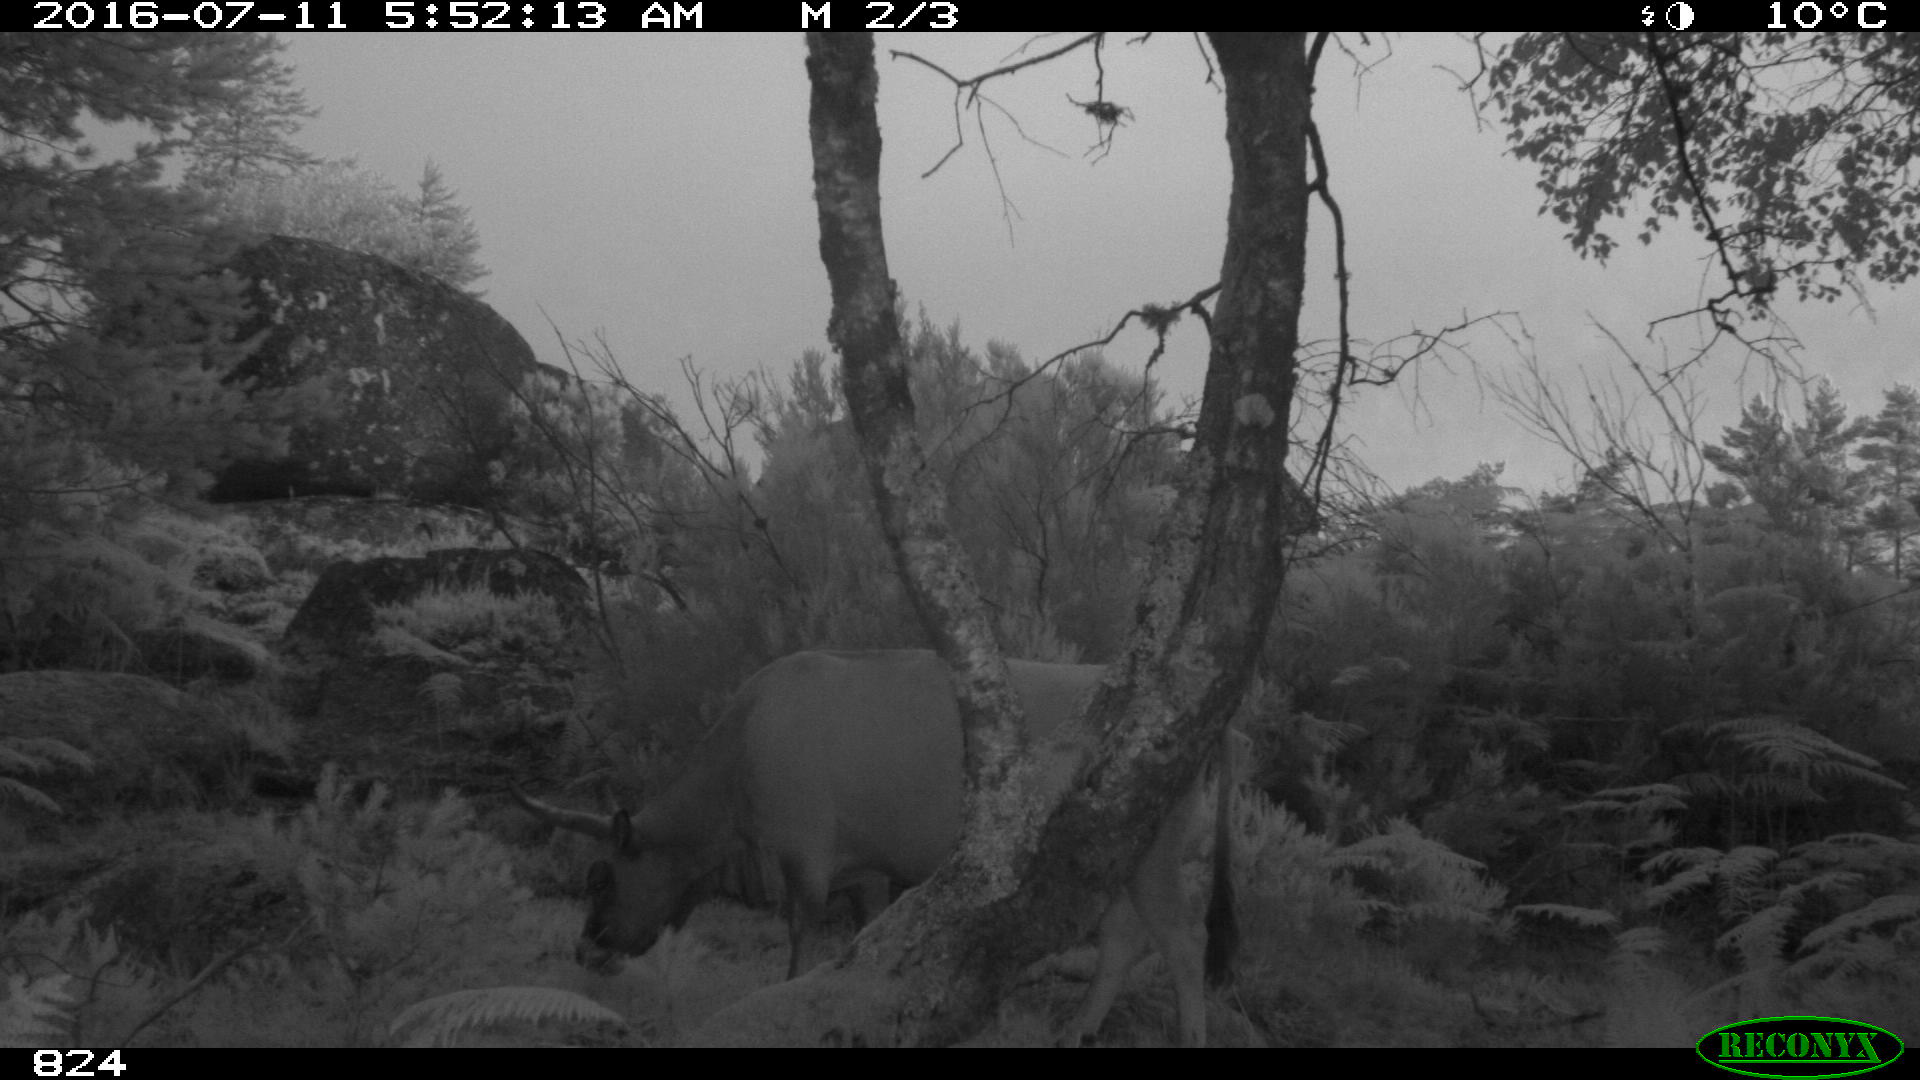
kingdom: Animalia
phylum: Chordata
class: Mammalia
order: Artiodactyla
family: Bovidae
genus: Bos
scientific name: Bos taurus
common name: Domesticated cattle
